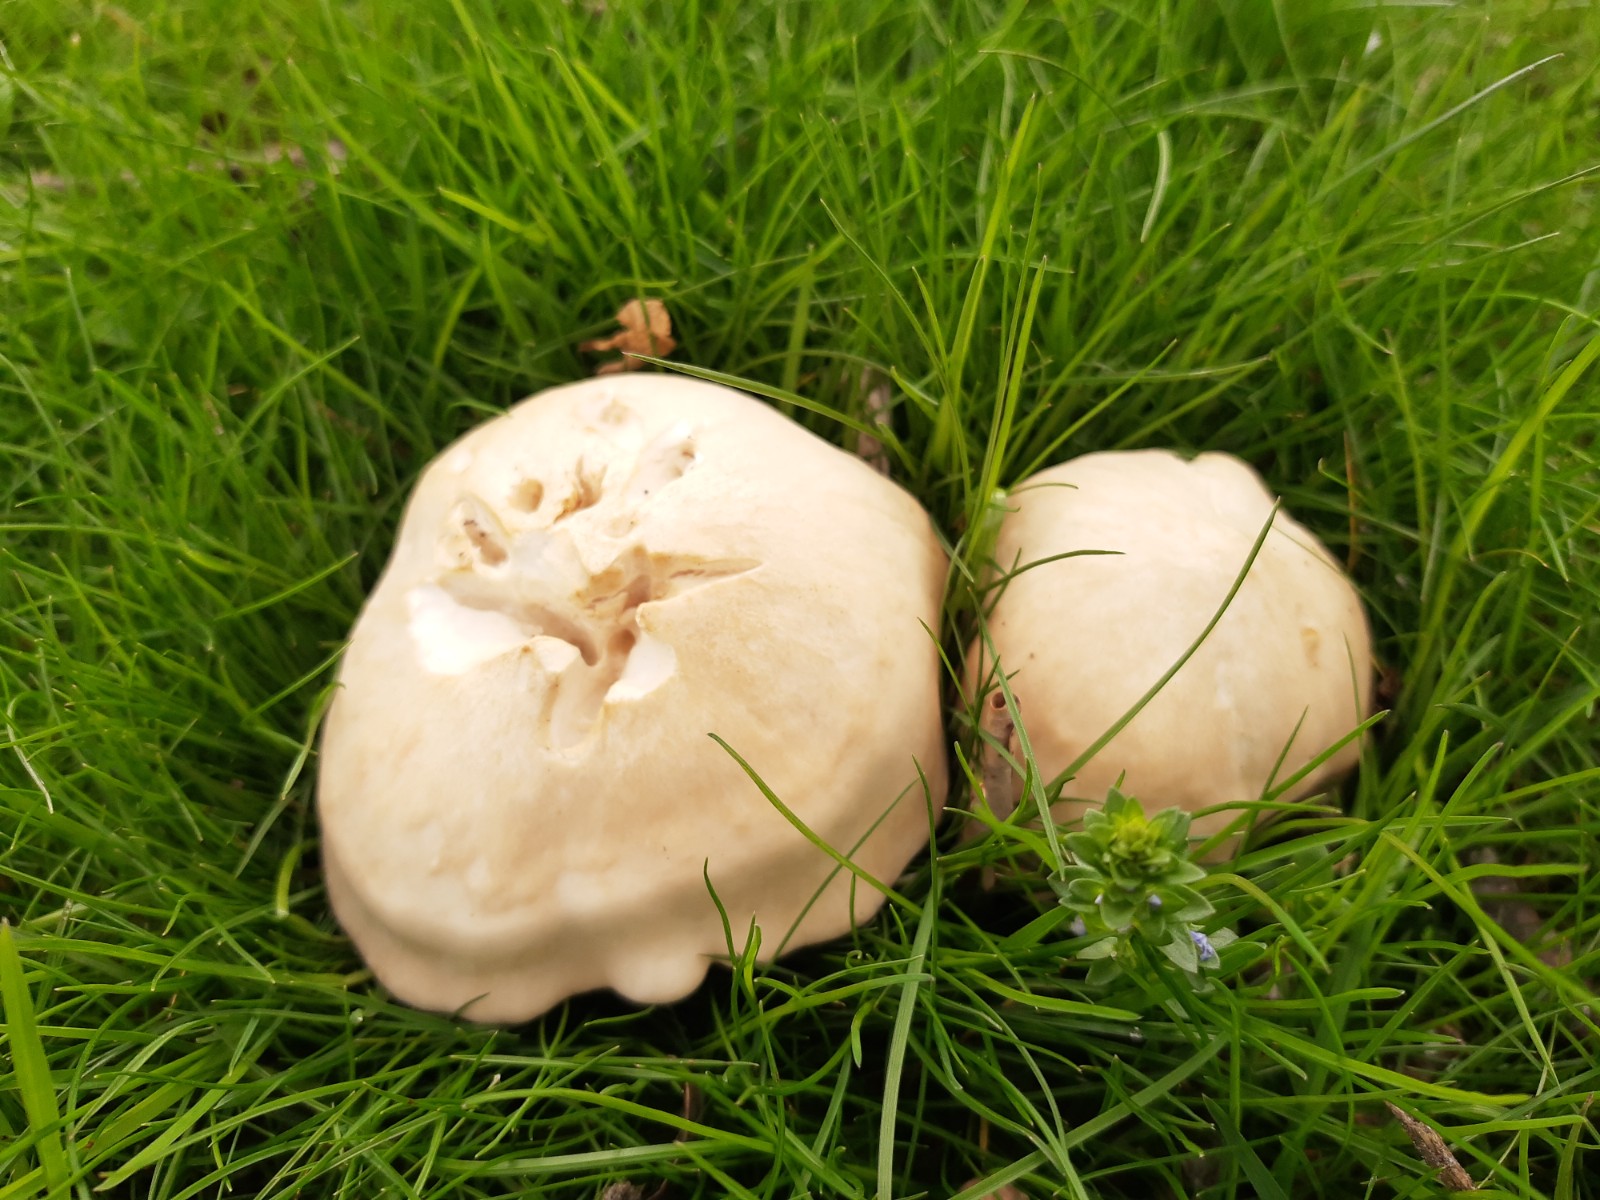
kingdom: Fungi
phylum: Basidiomycota
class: Agaricomycetes
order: Agaricales
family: Lyophyllaceae
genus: Calocybe
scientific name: Calocybe gambosa
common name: vårmusseron
